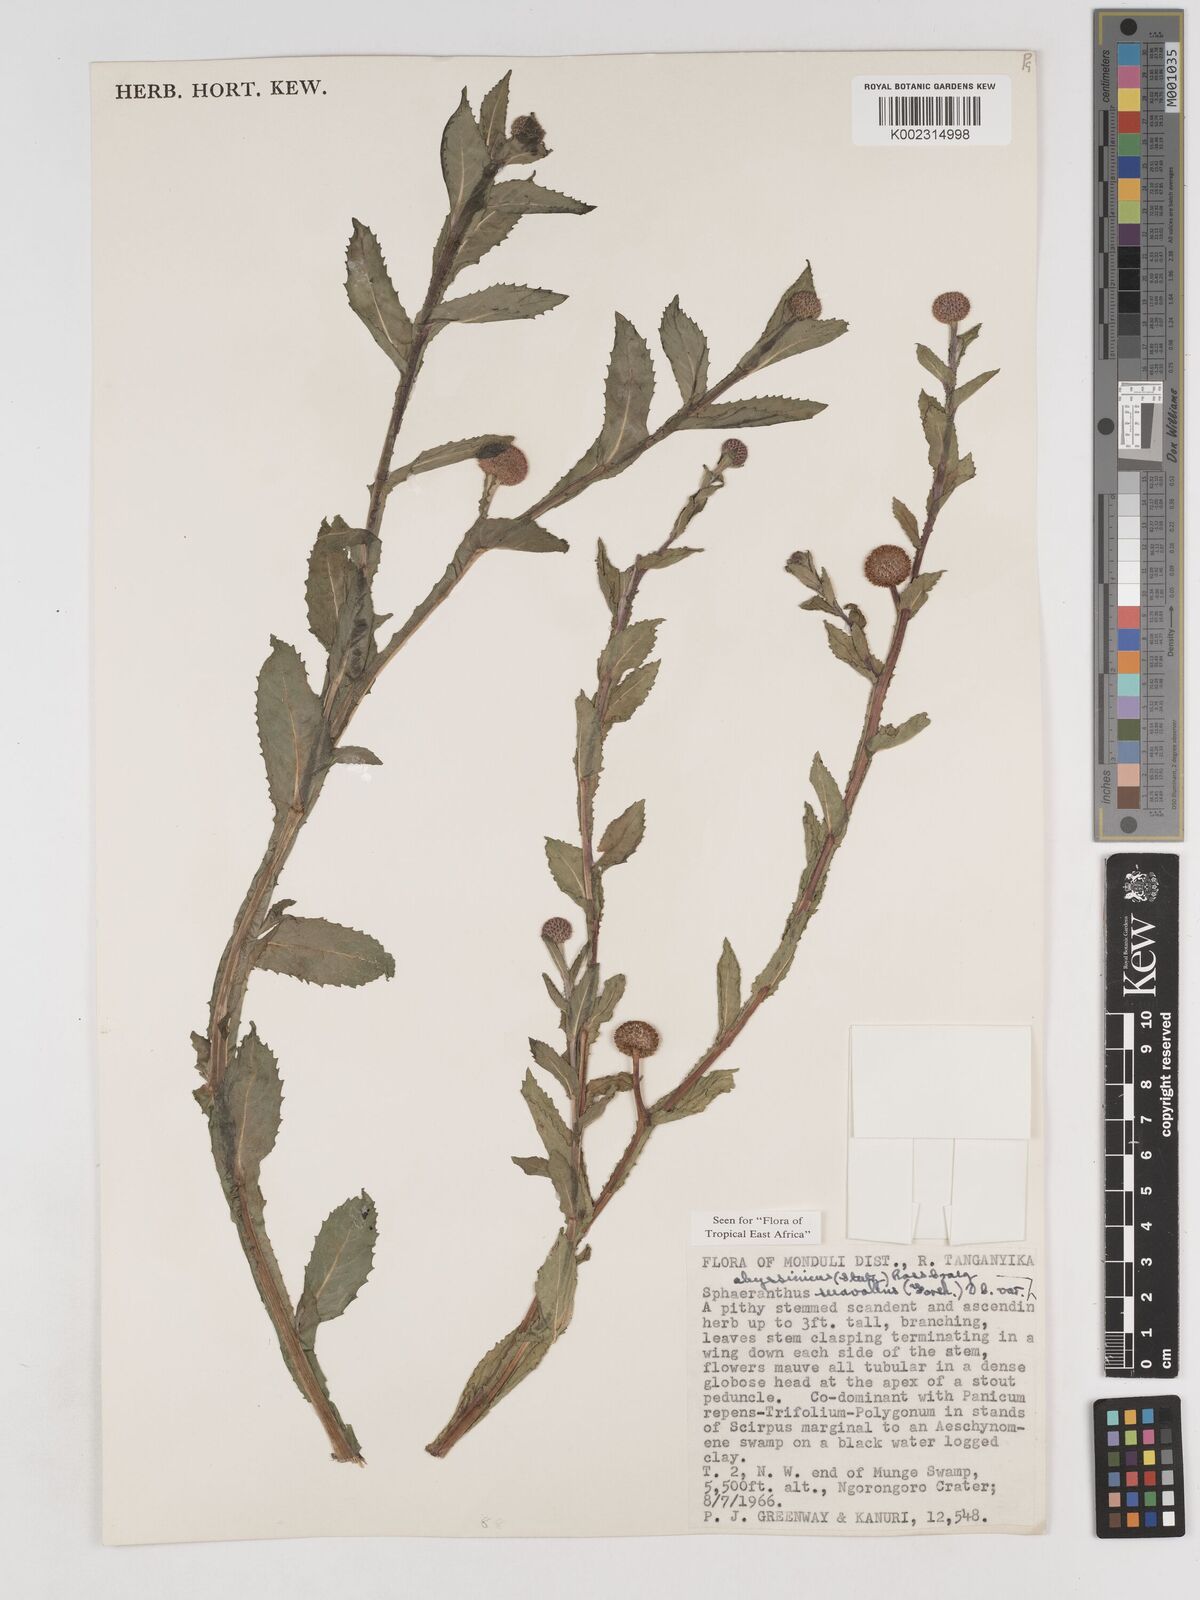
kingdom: Plantae
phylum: Tracheophyta
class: Magnoliopsida
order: Asterales
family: Asteraceae
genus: Sphaeranthus
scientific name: Sphaeranthus suaveolens
